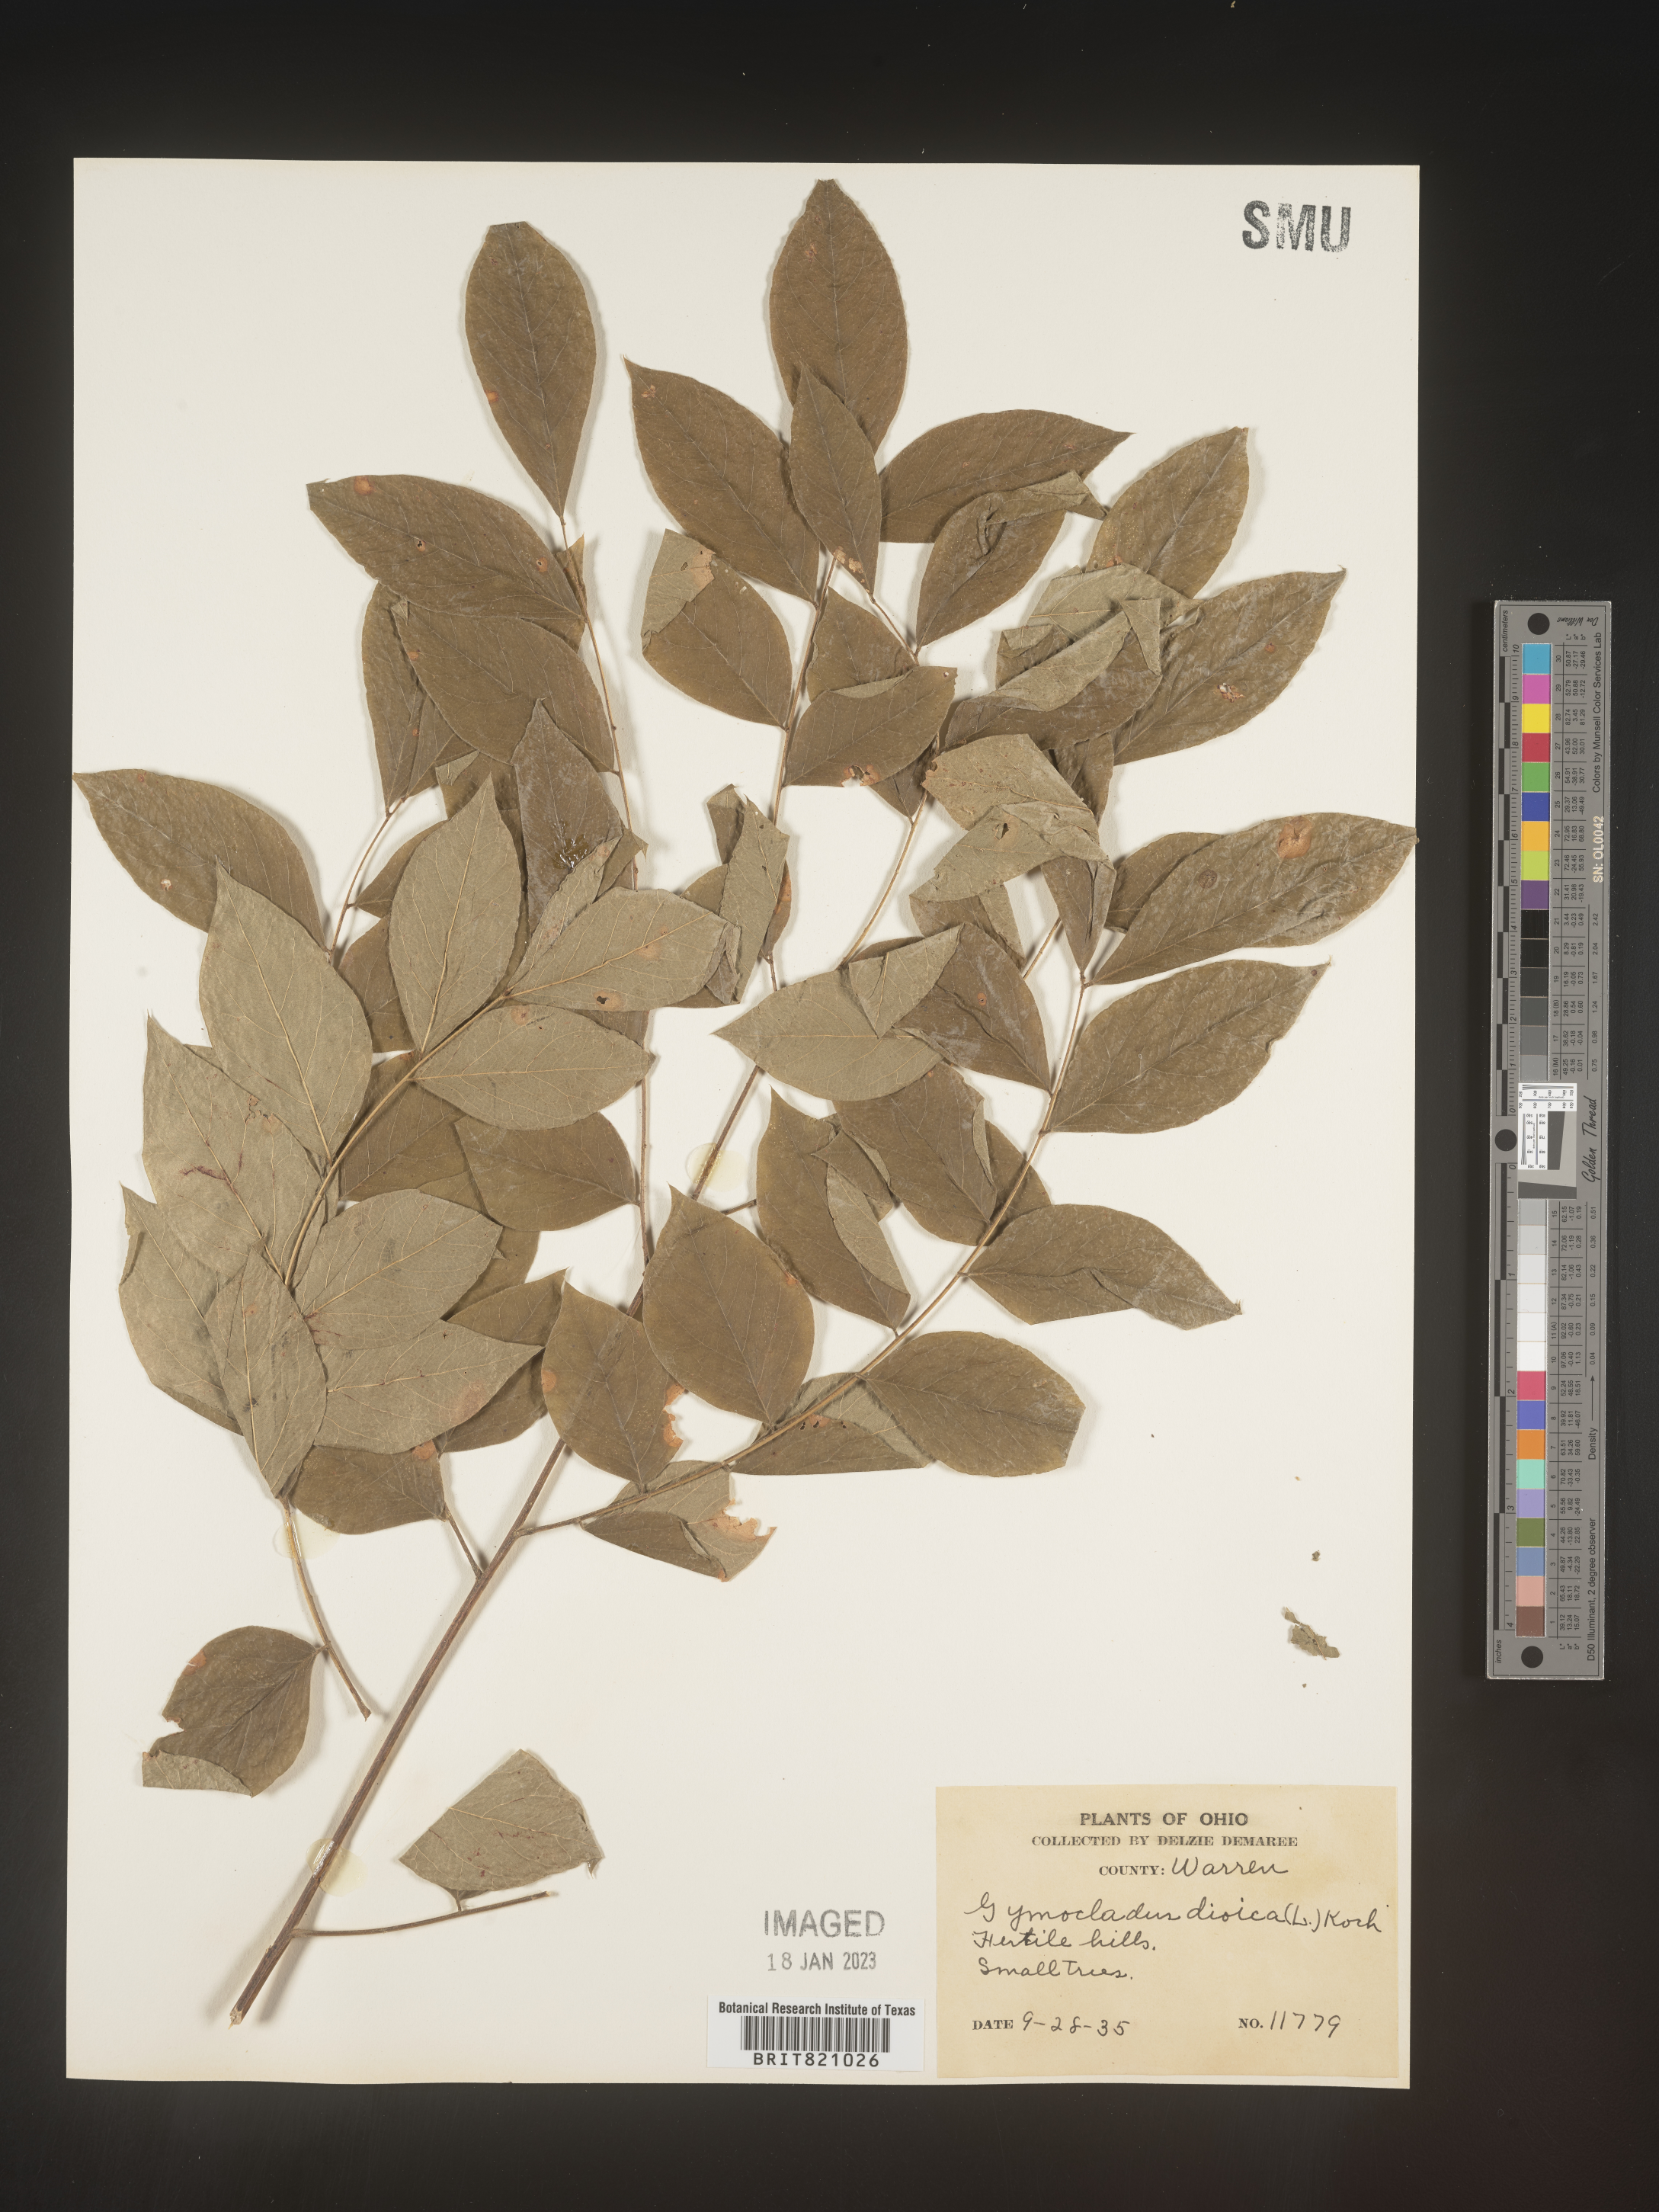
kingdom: Plantae
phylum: Tracheophyta
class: Magnoliopsida
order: Fabales
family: Fabaceae
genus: Gymnocladus
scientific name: Gymnocladus dioicus
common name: Kentucky coffee-tree
